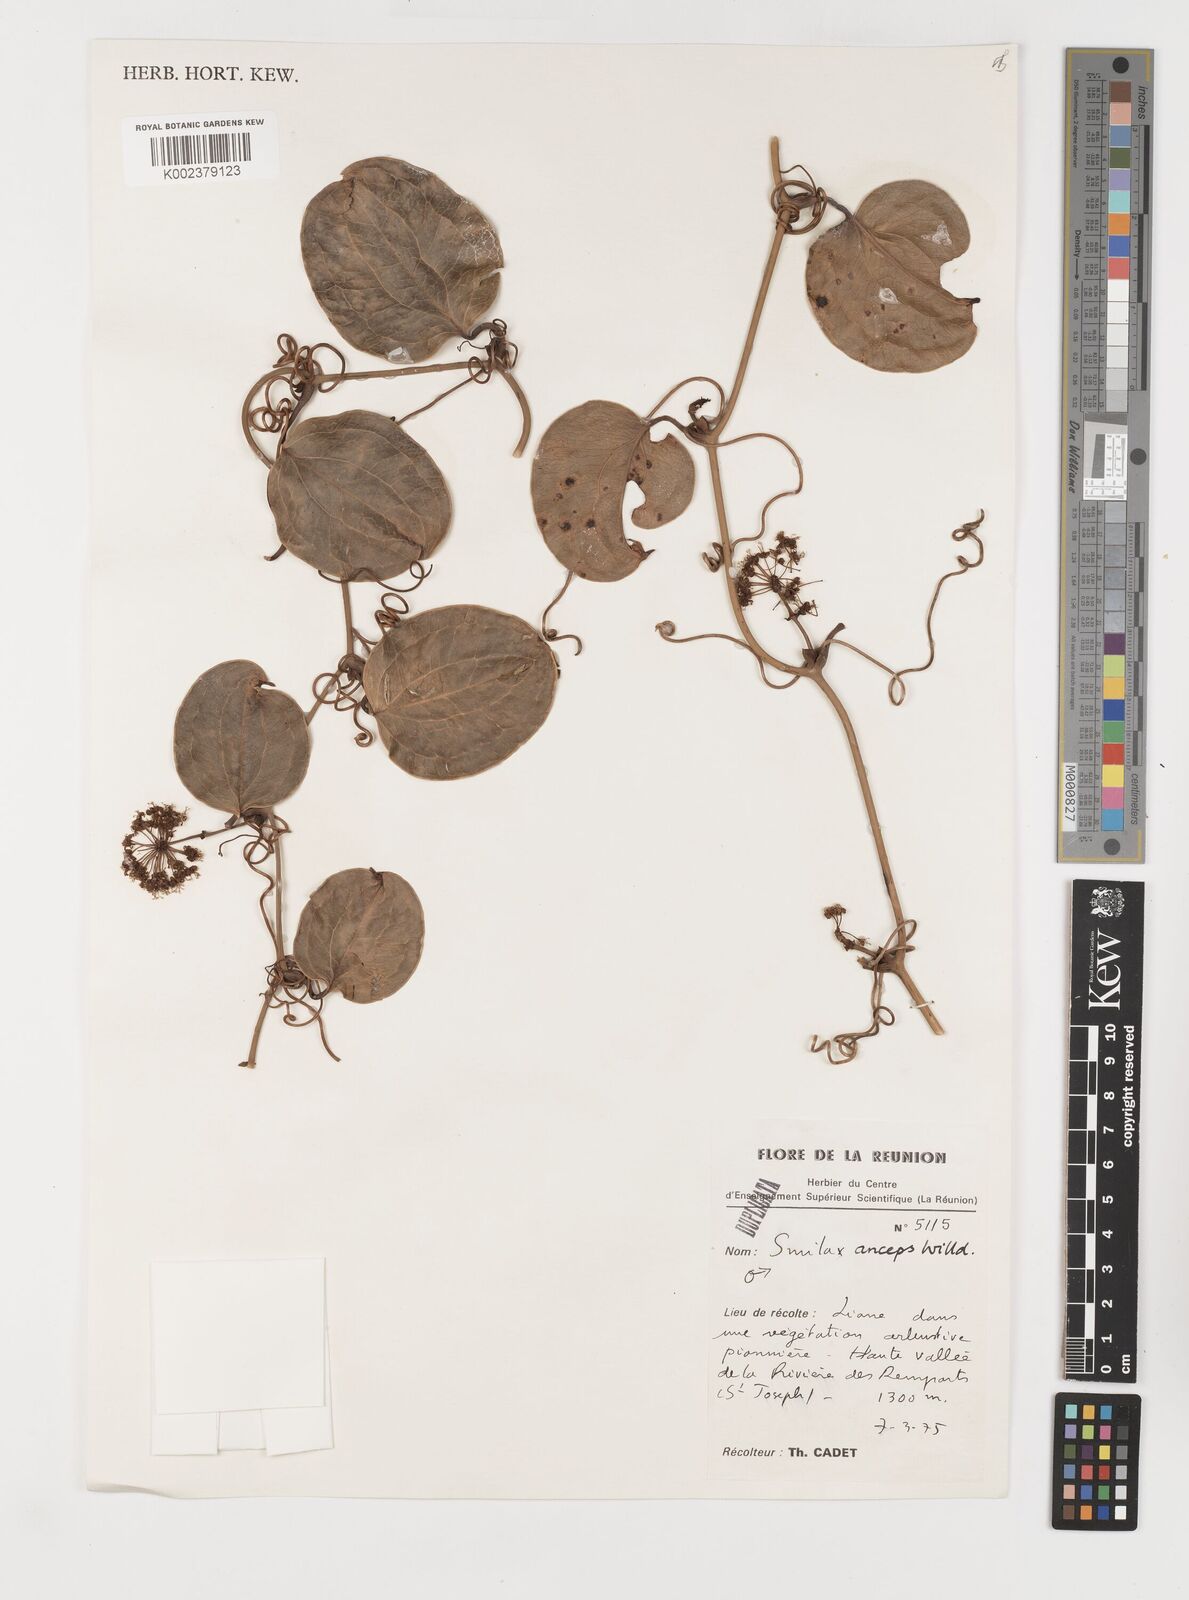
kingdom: Plantae
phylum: Tracheophyta
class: Liliopsida
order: Liliales
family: Smilacaceae
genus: Smilax
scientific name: Smilax anceps
